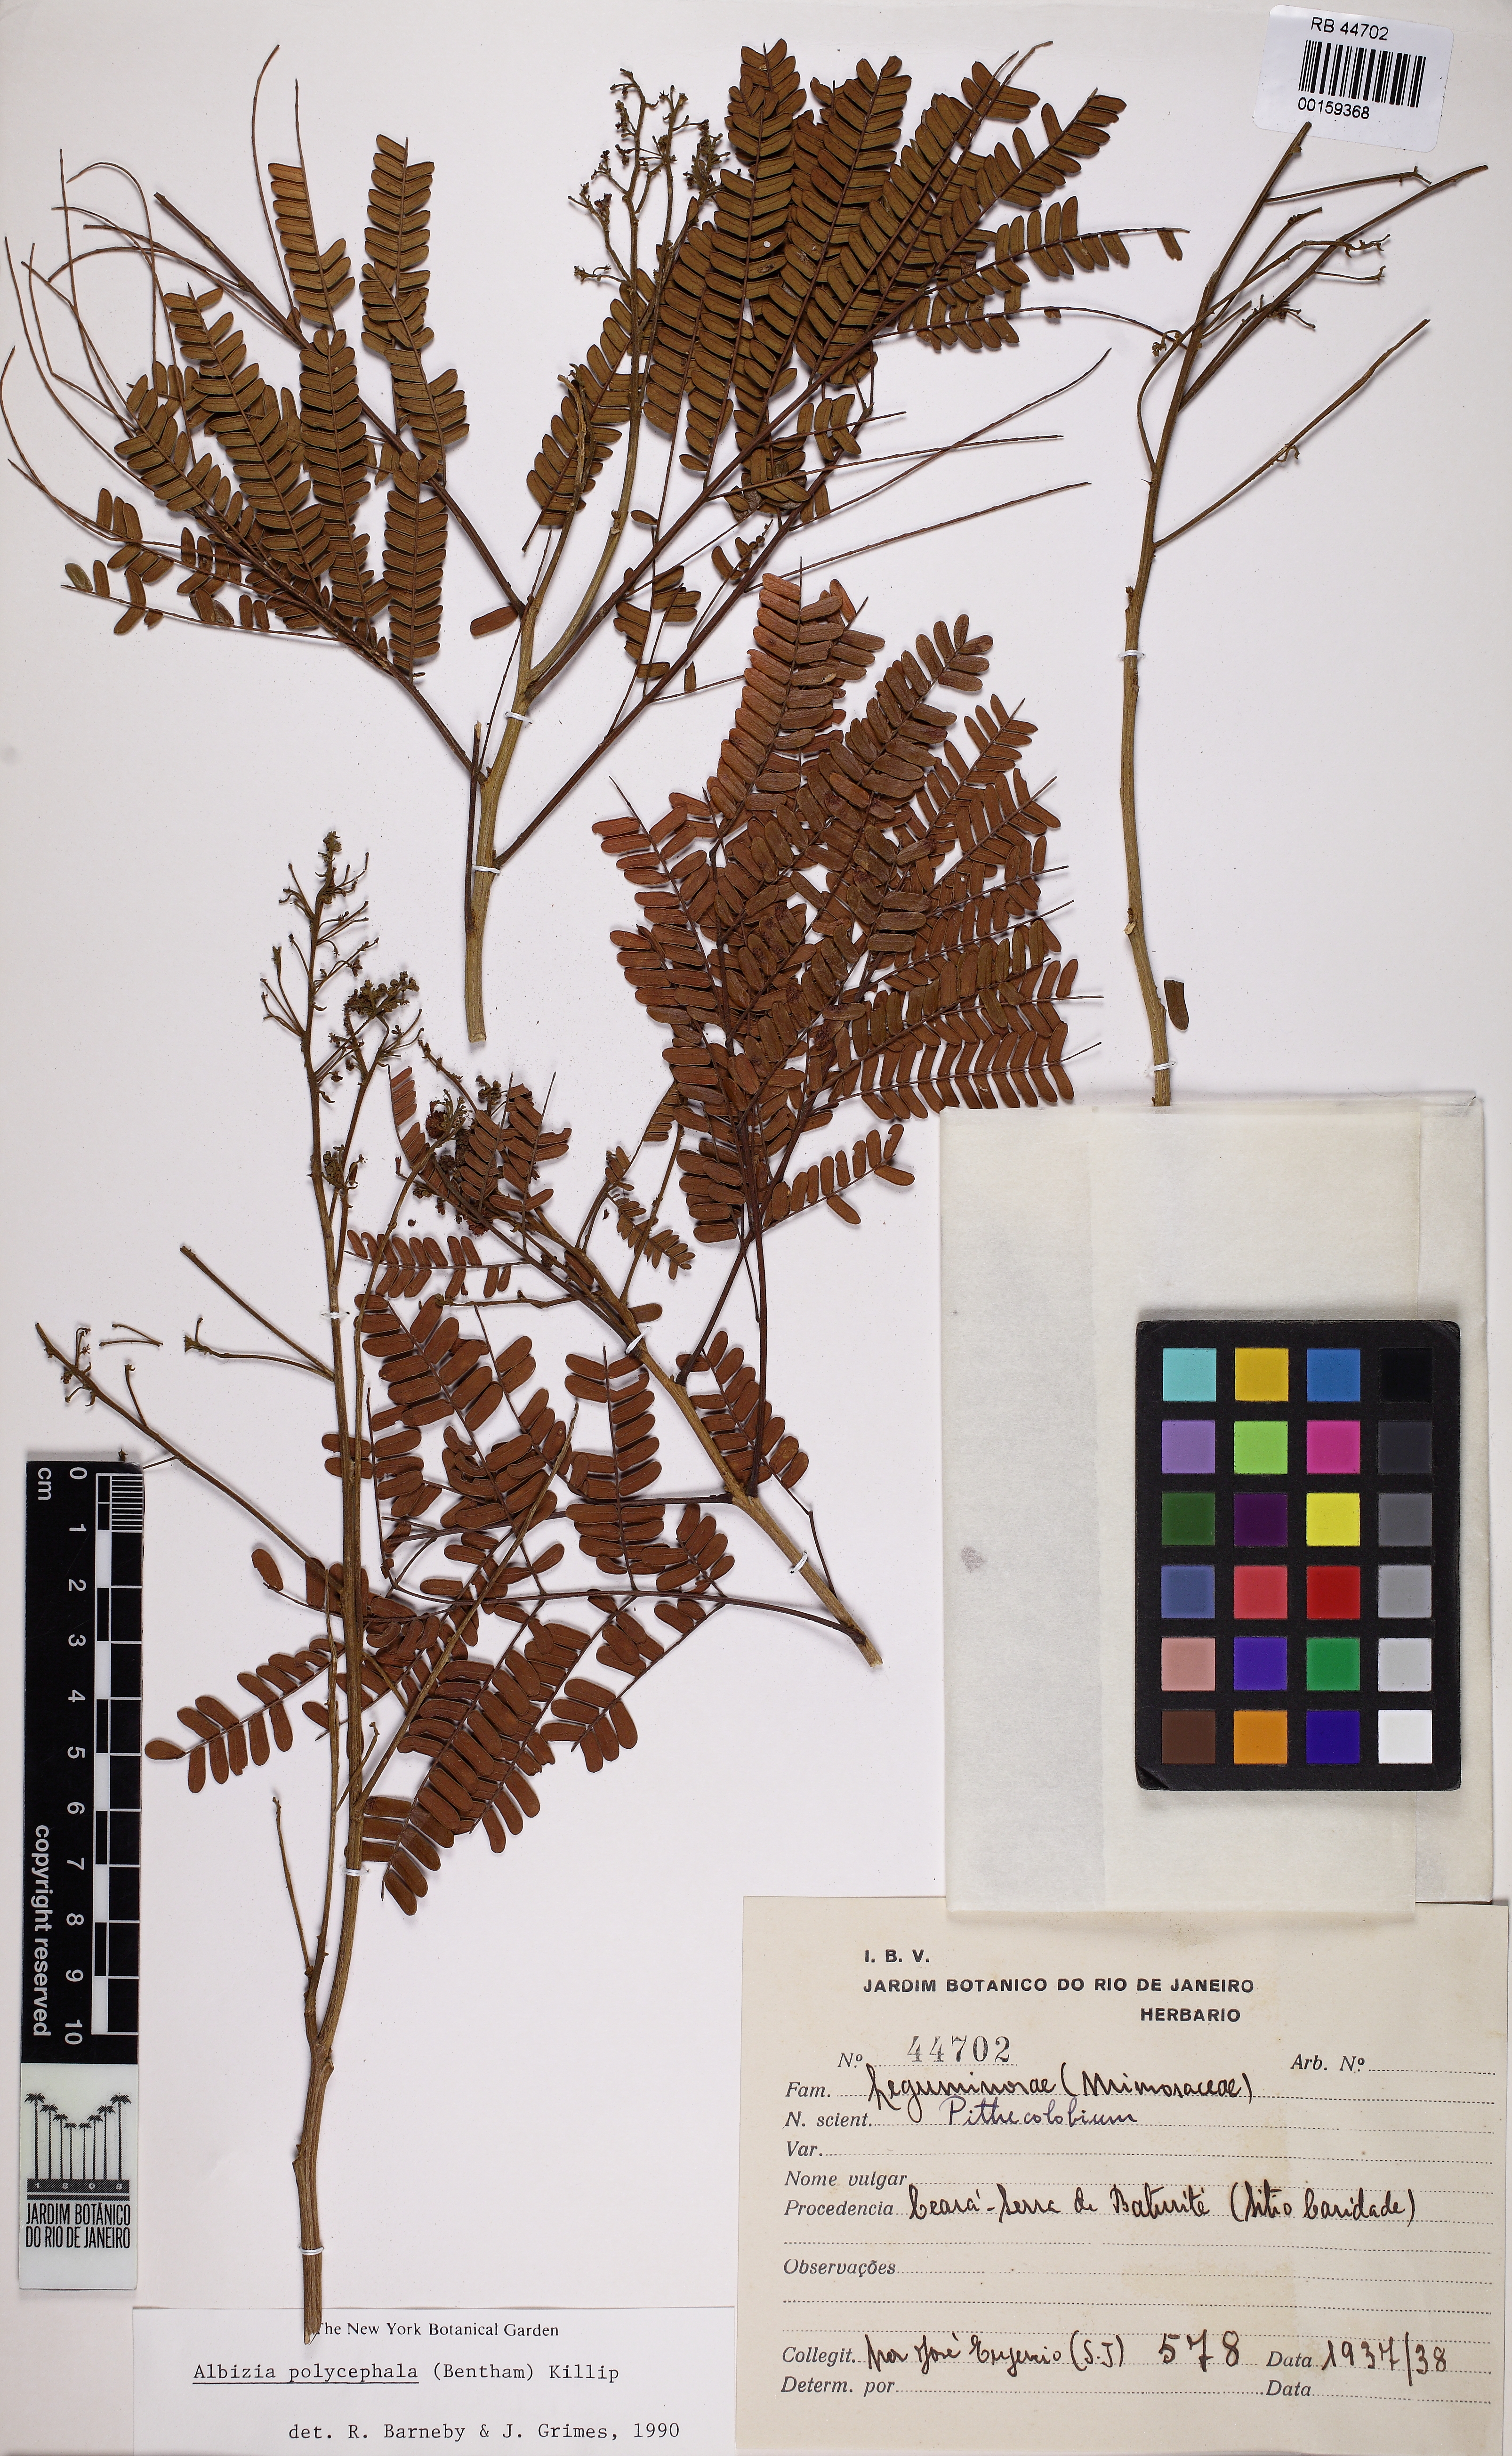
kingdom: Plantae
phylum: Tracheophyta
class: Magnoliopsida
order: Fabales
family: Fabaceae
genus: Albizia
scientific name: Albizia polycephala
